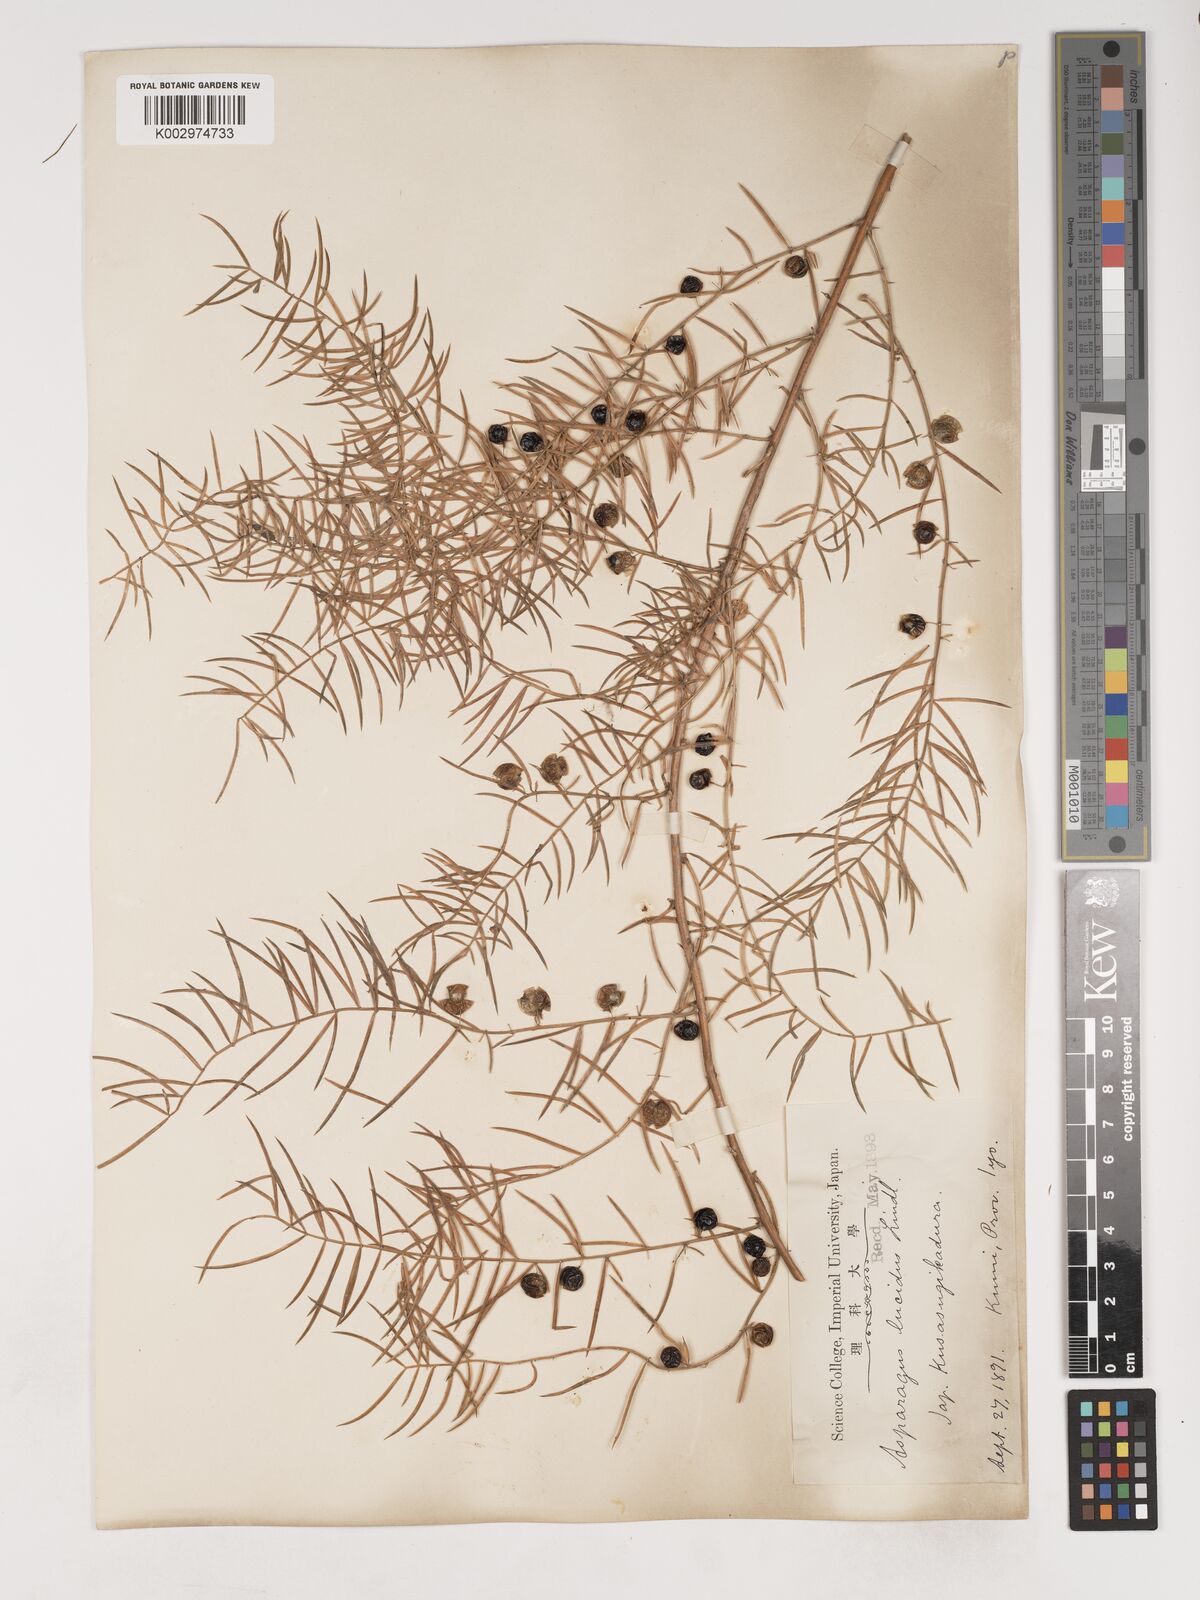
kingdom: Plantae
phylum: Tracheophyta
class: Liliopsida
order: Asparagales
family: Asparagaceae
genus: Asparagus
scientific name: Asparagus cochinchinensis
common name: Chinese asparagus
